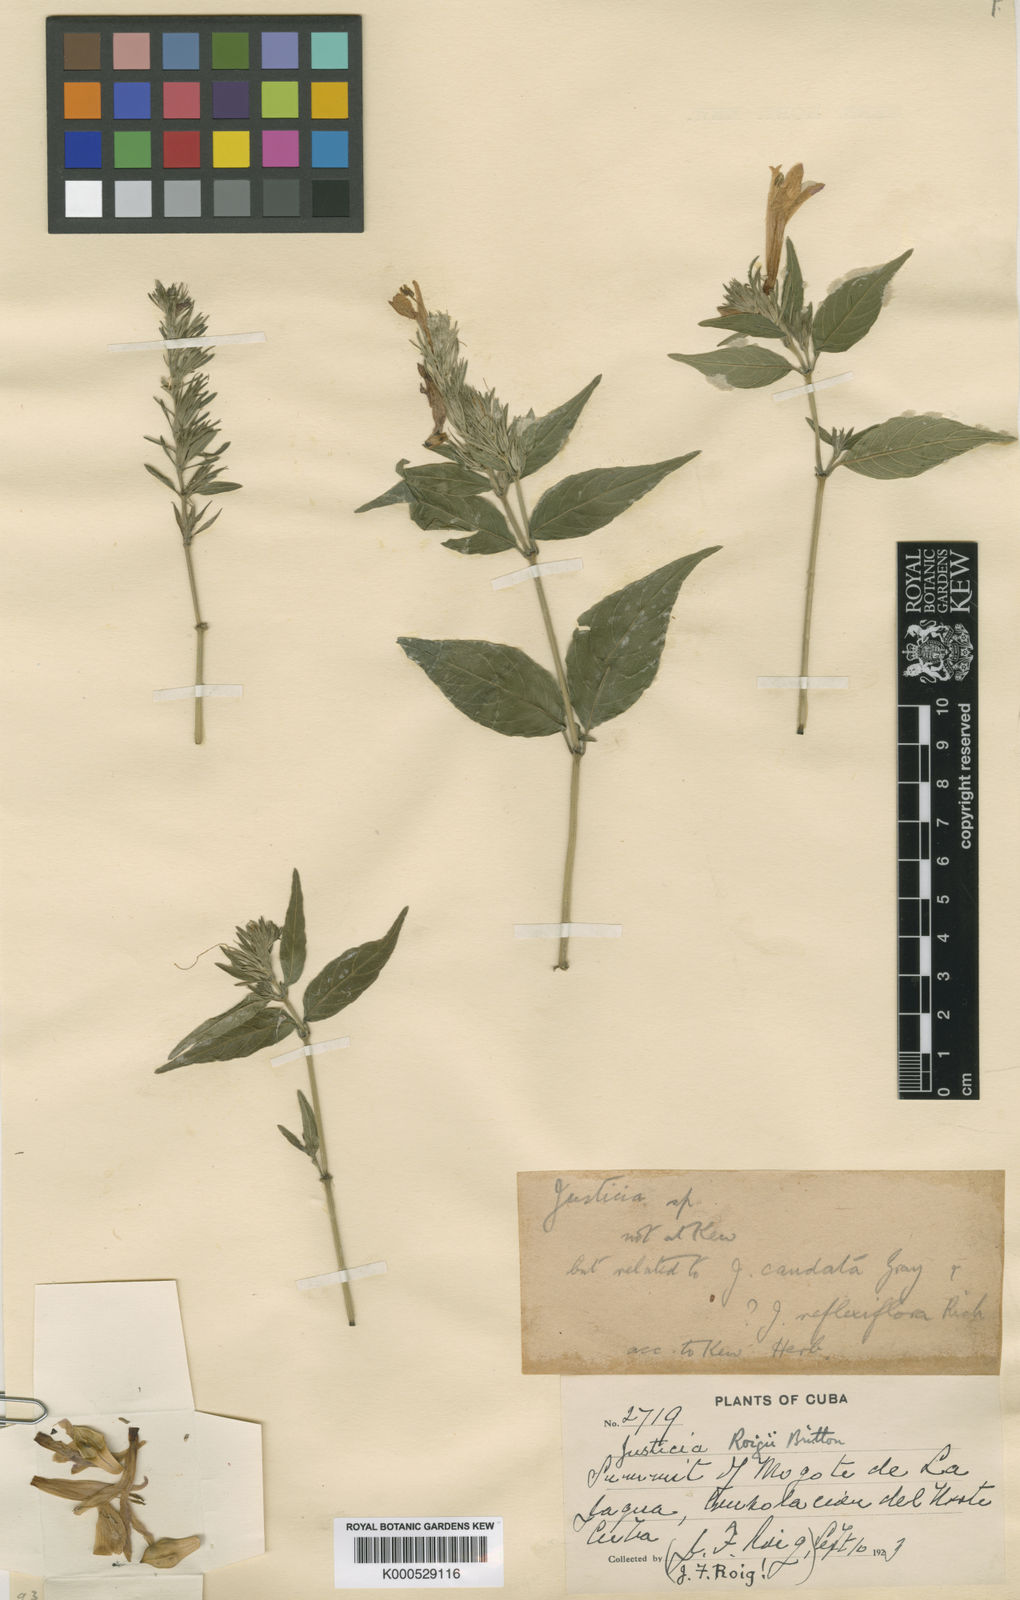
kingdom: Plantae
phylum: Tracheophyta
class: Magnoliopsida
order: Lamiales
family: Acanthaceae
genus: Justicia
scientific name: Justicia roigii
